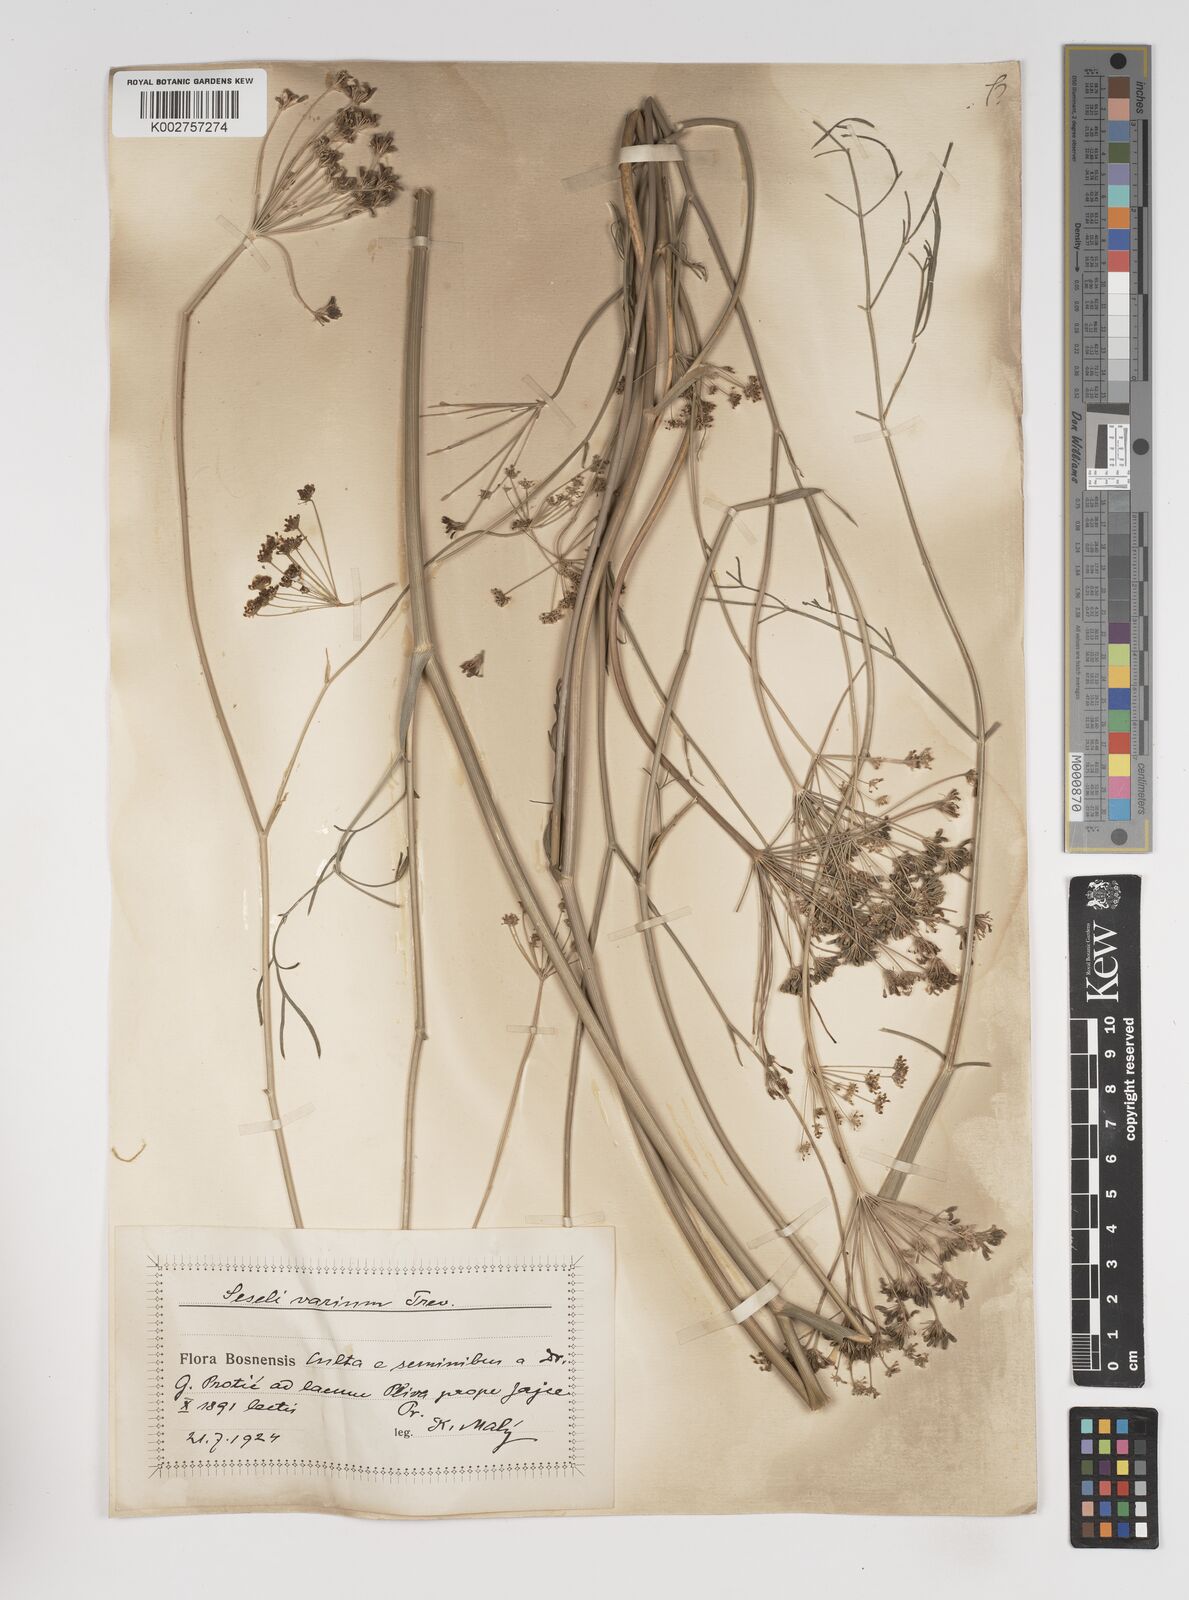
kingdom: Plantae
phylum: Tracheophyta
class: Magnoliopsida
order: Apiales
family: Apiaceae
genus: Seseli
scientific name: Seseli pallasii
